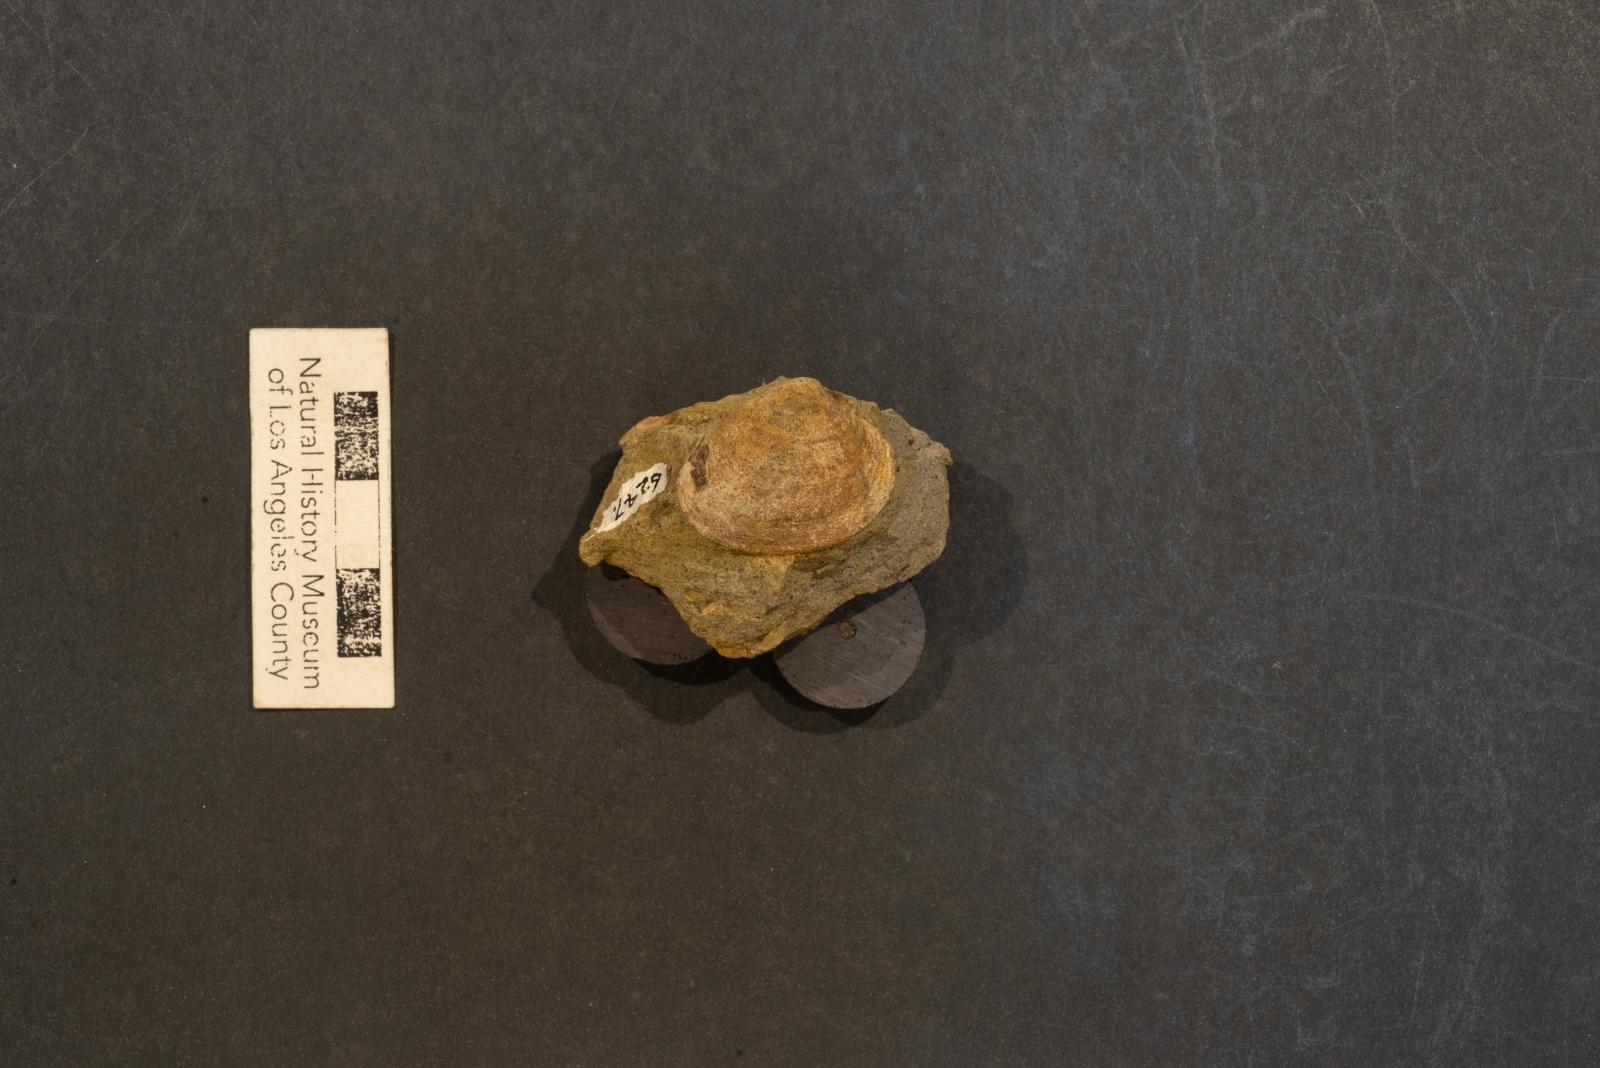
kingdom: Animalia
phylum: Mollusca
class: Bivalvia
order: Venerida
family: Veneridae
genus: Loxo
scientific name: Loxo decore
